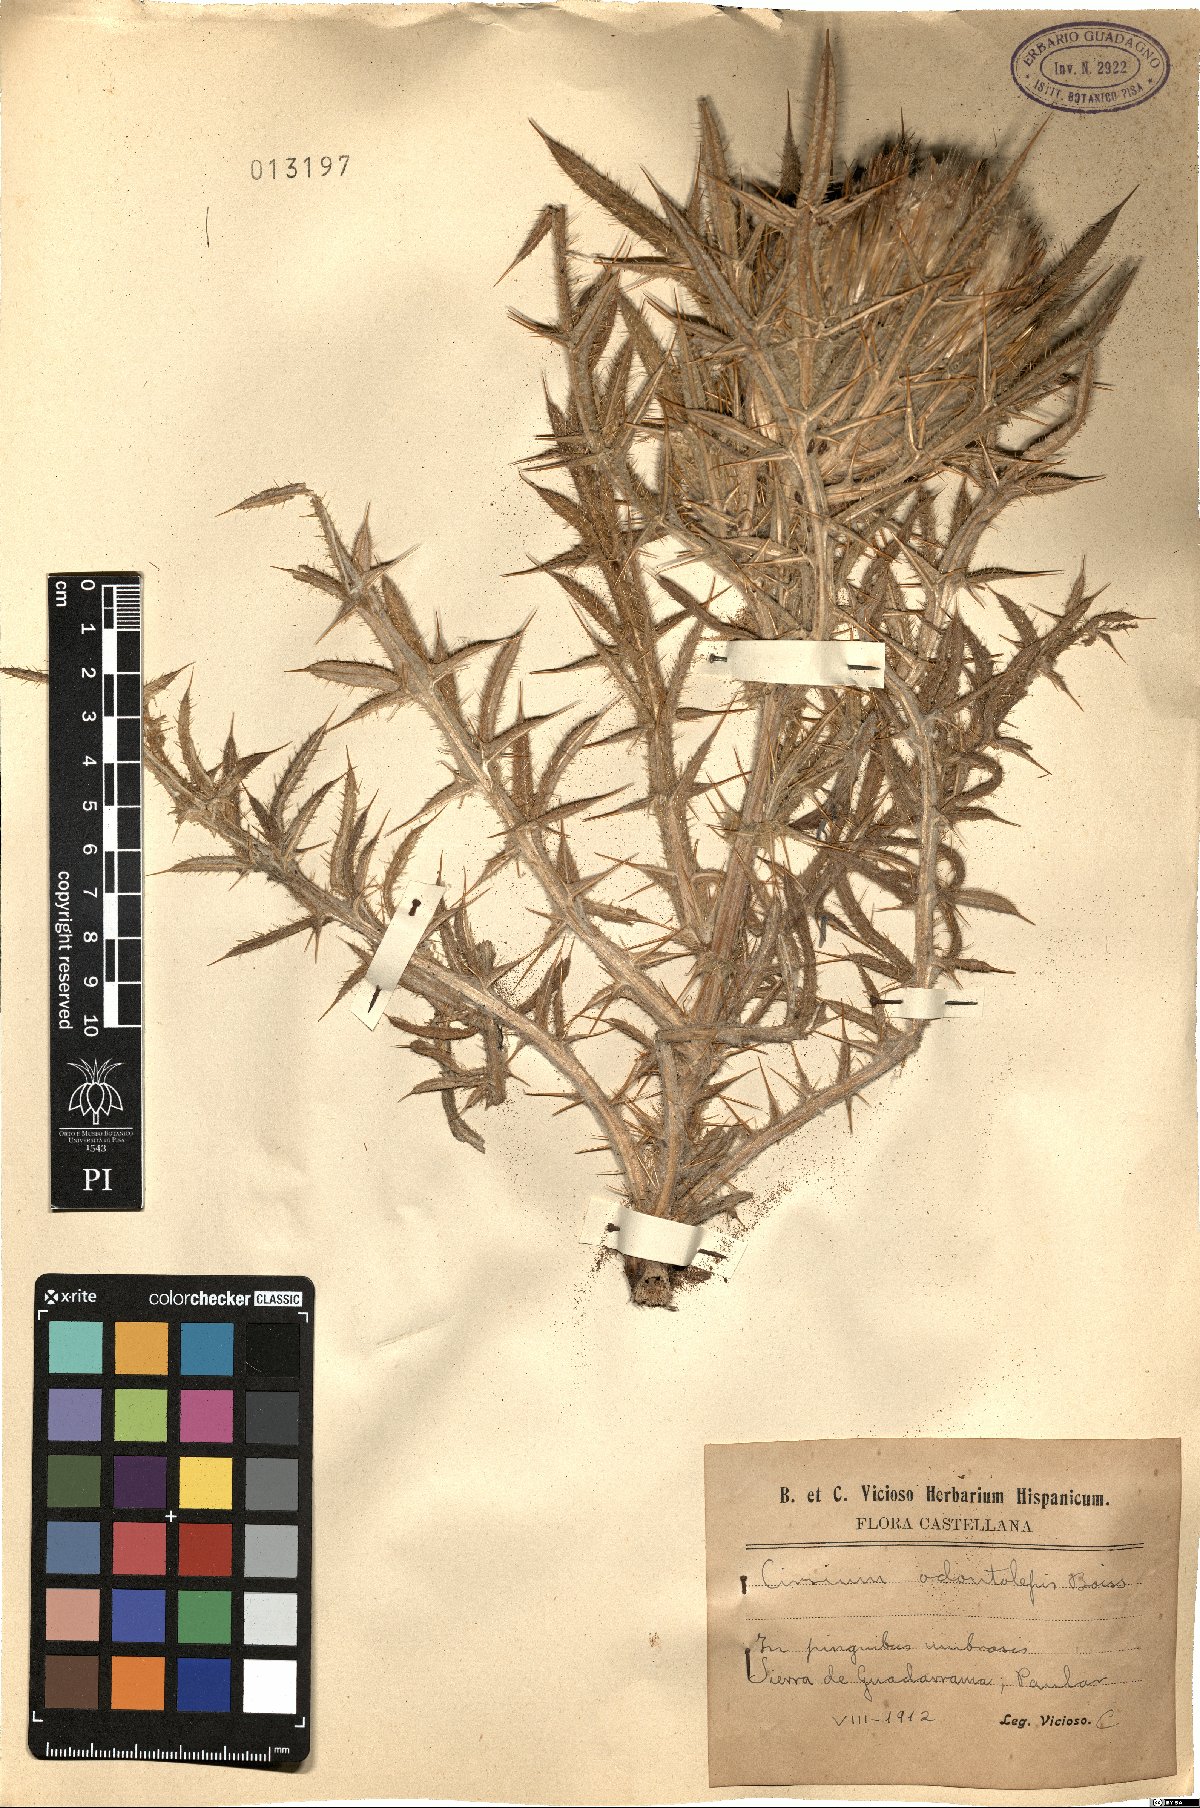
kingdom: Plantae
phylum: Tracheophyta
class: Magnoliopsida
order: Asterales
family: Asteraceae
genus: Lophiolepis
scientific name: Lophiolepis odontolepis
